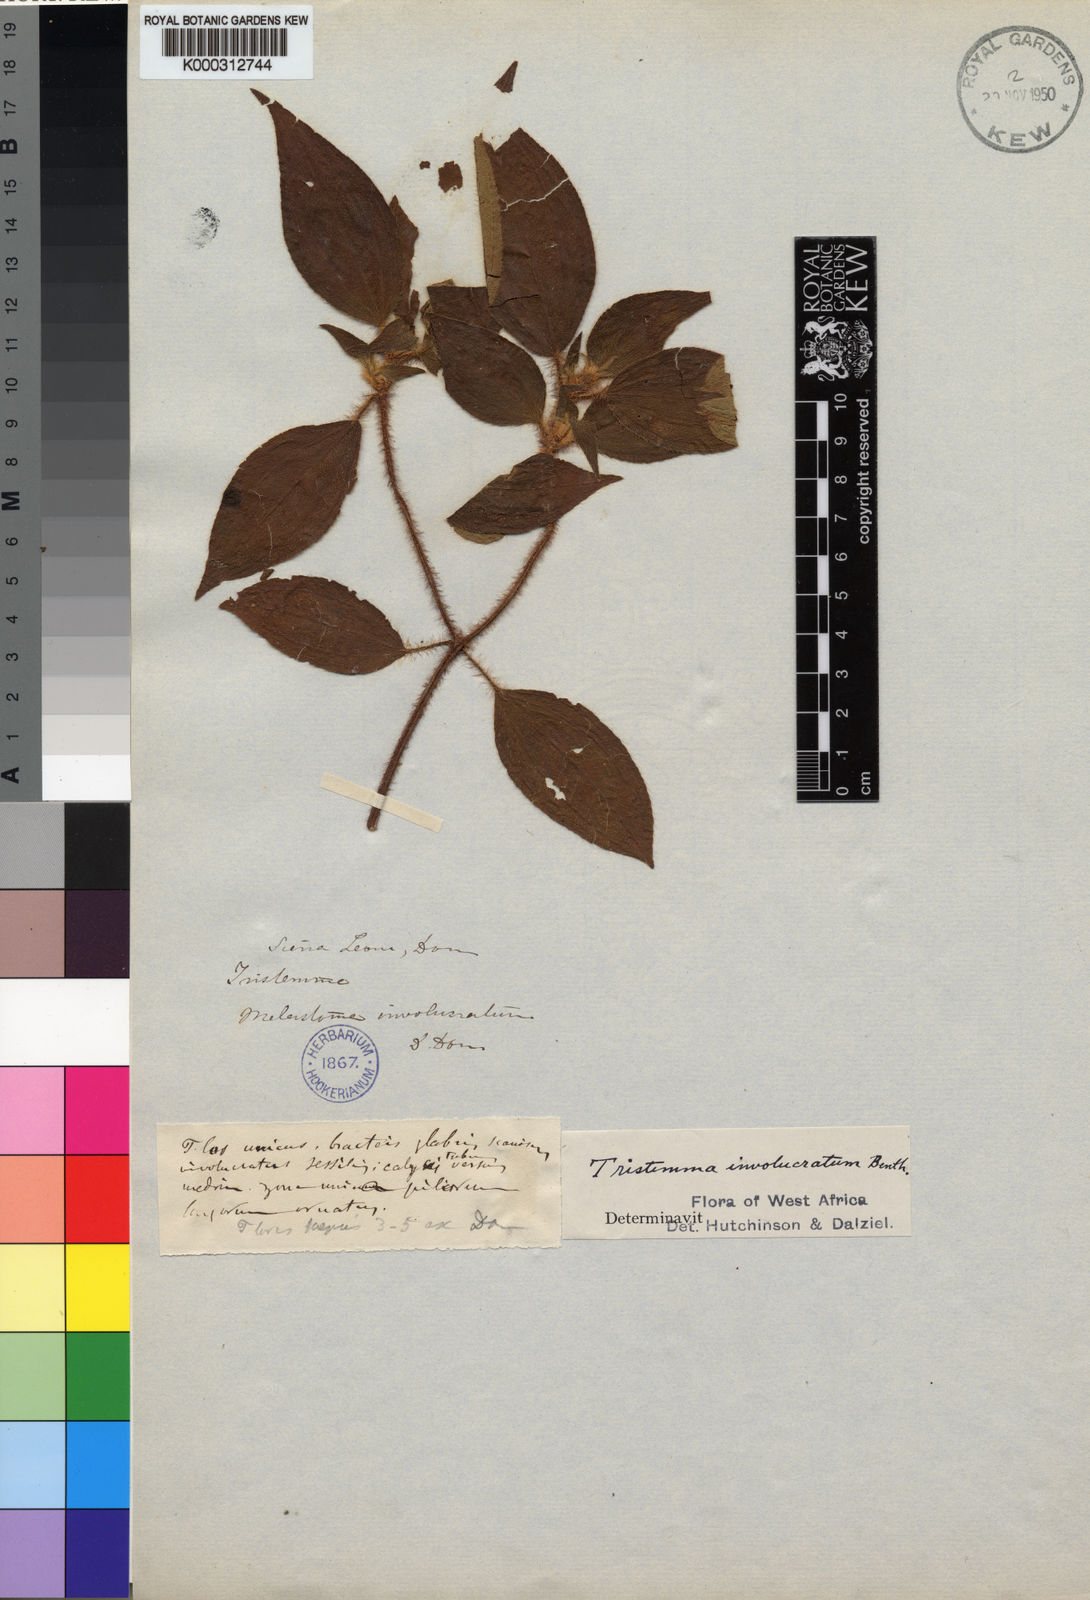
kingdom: Plantae
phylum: Tracheophyta
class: Magnoliopsida
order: Myrtales
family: Melastomataceae
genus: Tristemma
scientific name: Tristemma involucratum
